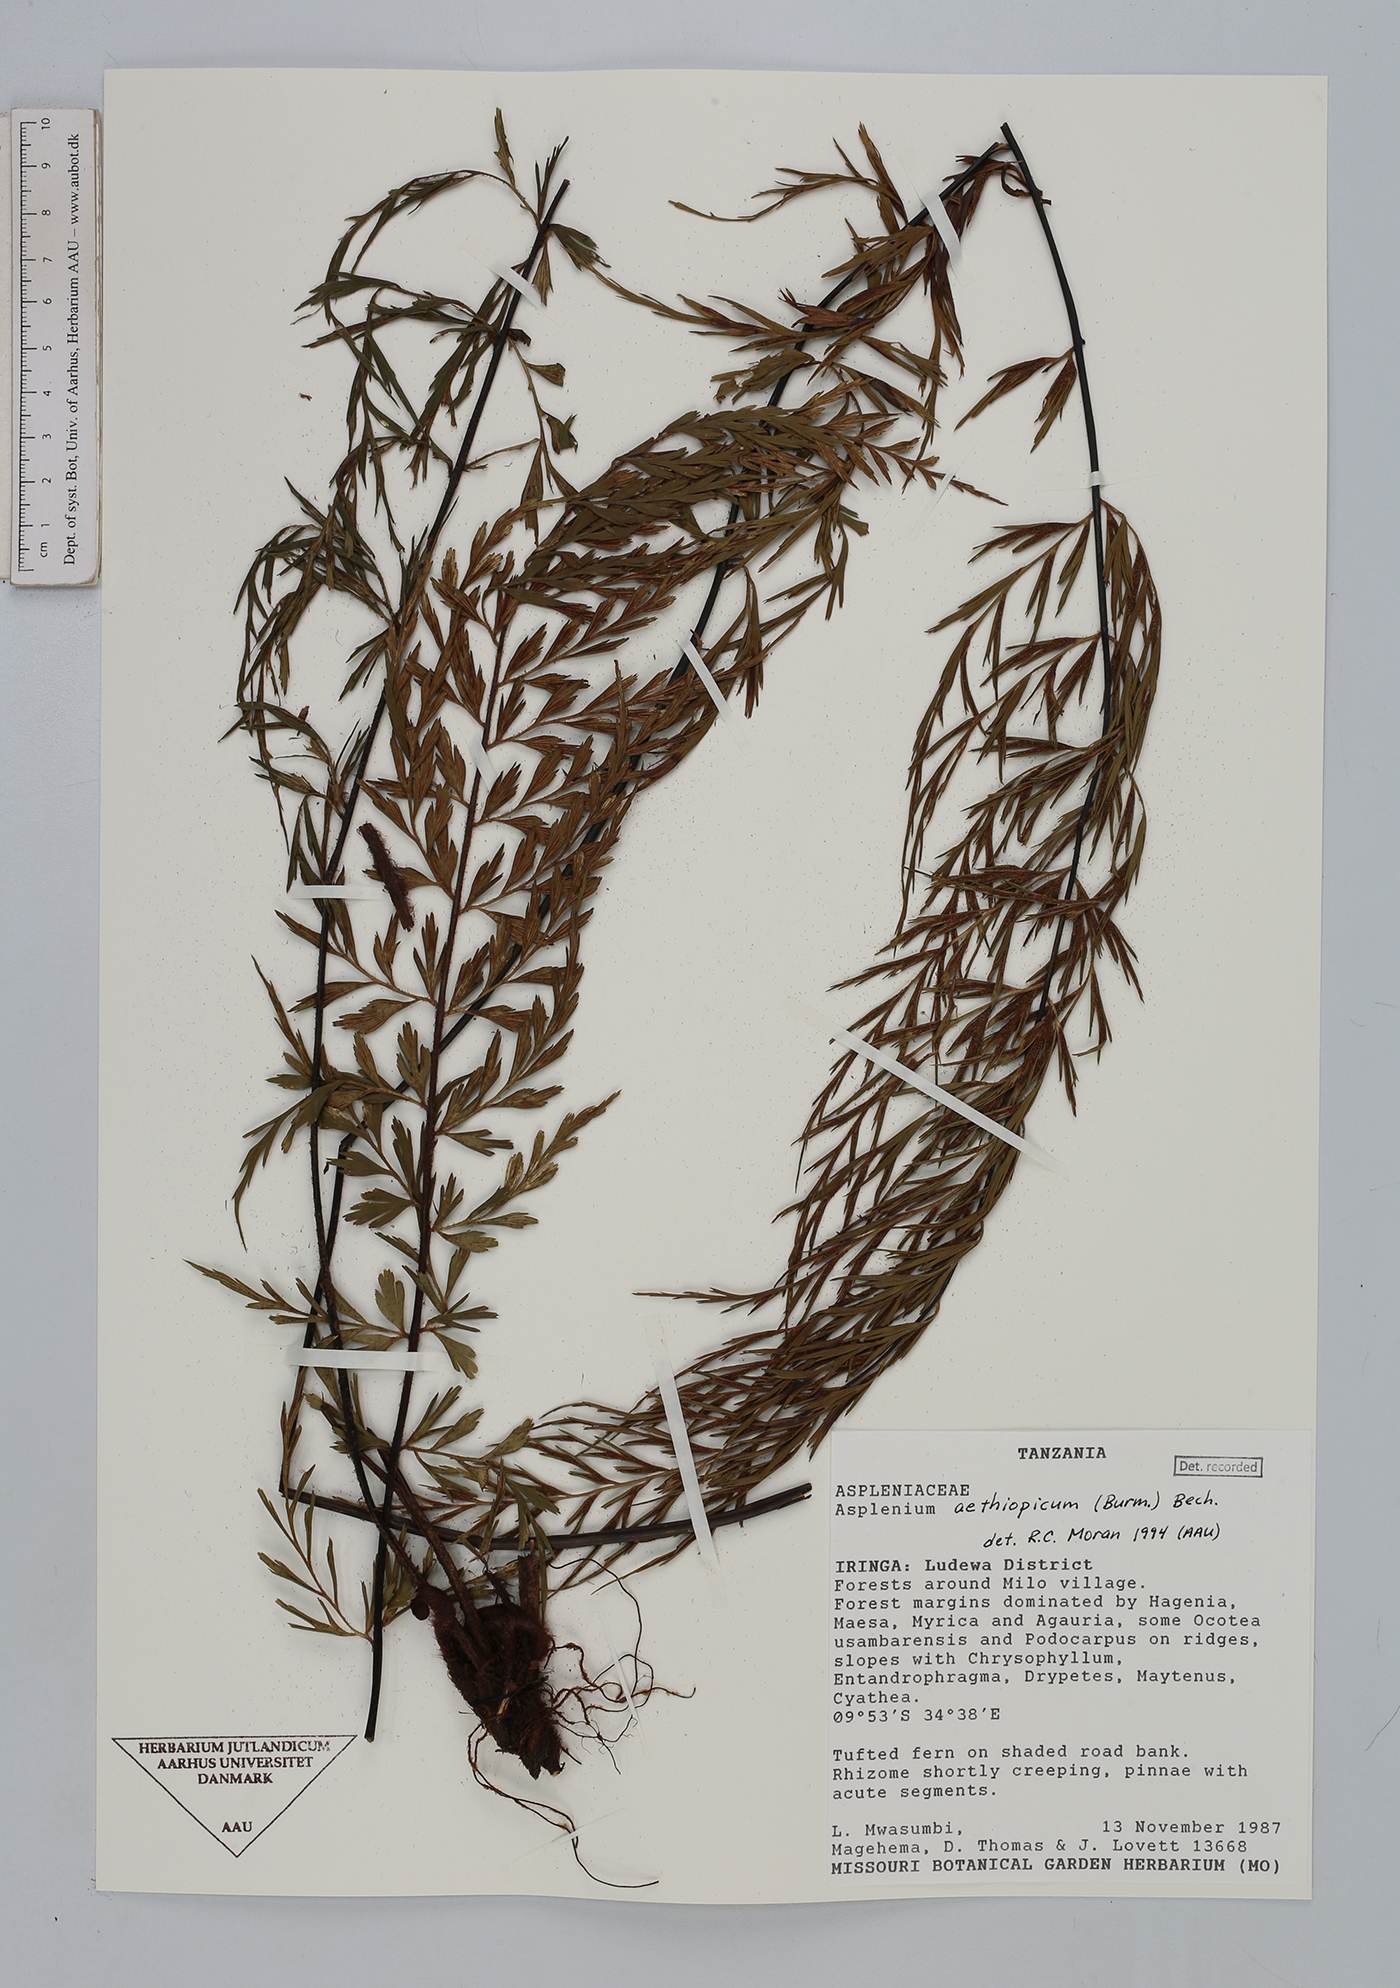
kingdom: Plantae
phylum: Tracheophyta
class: Polypodiopsida
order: Polypodiales
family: Aspleniaceae
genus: Asplenium
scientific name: Asplenium aethiopicum
